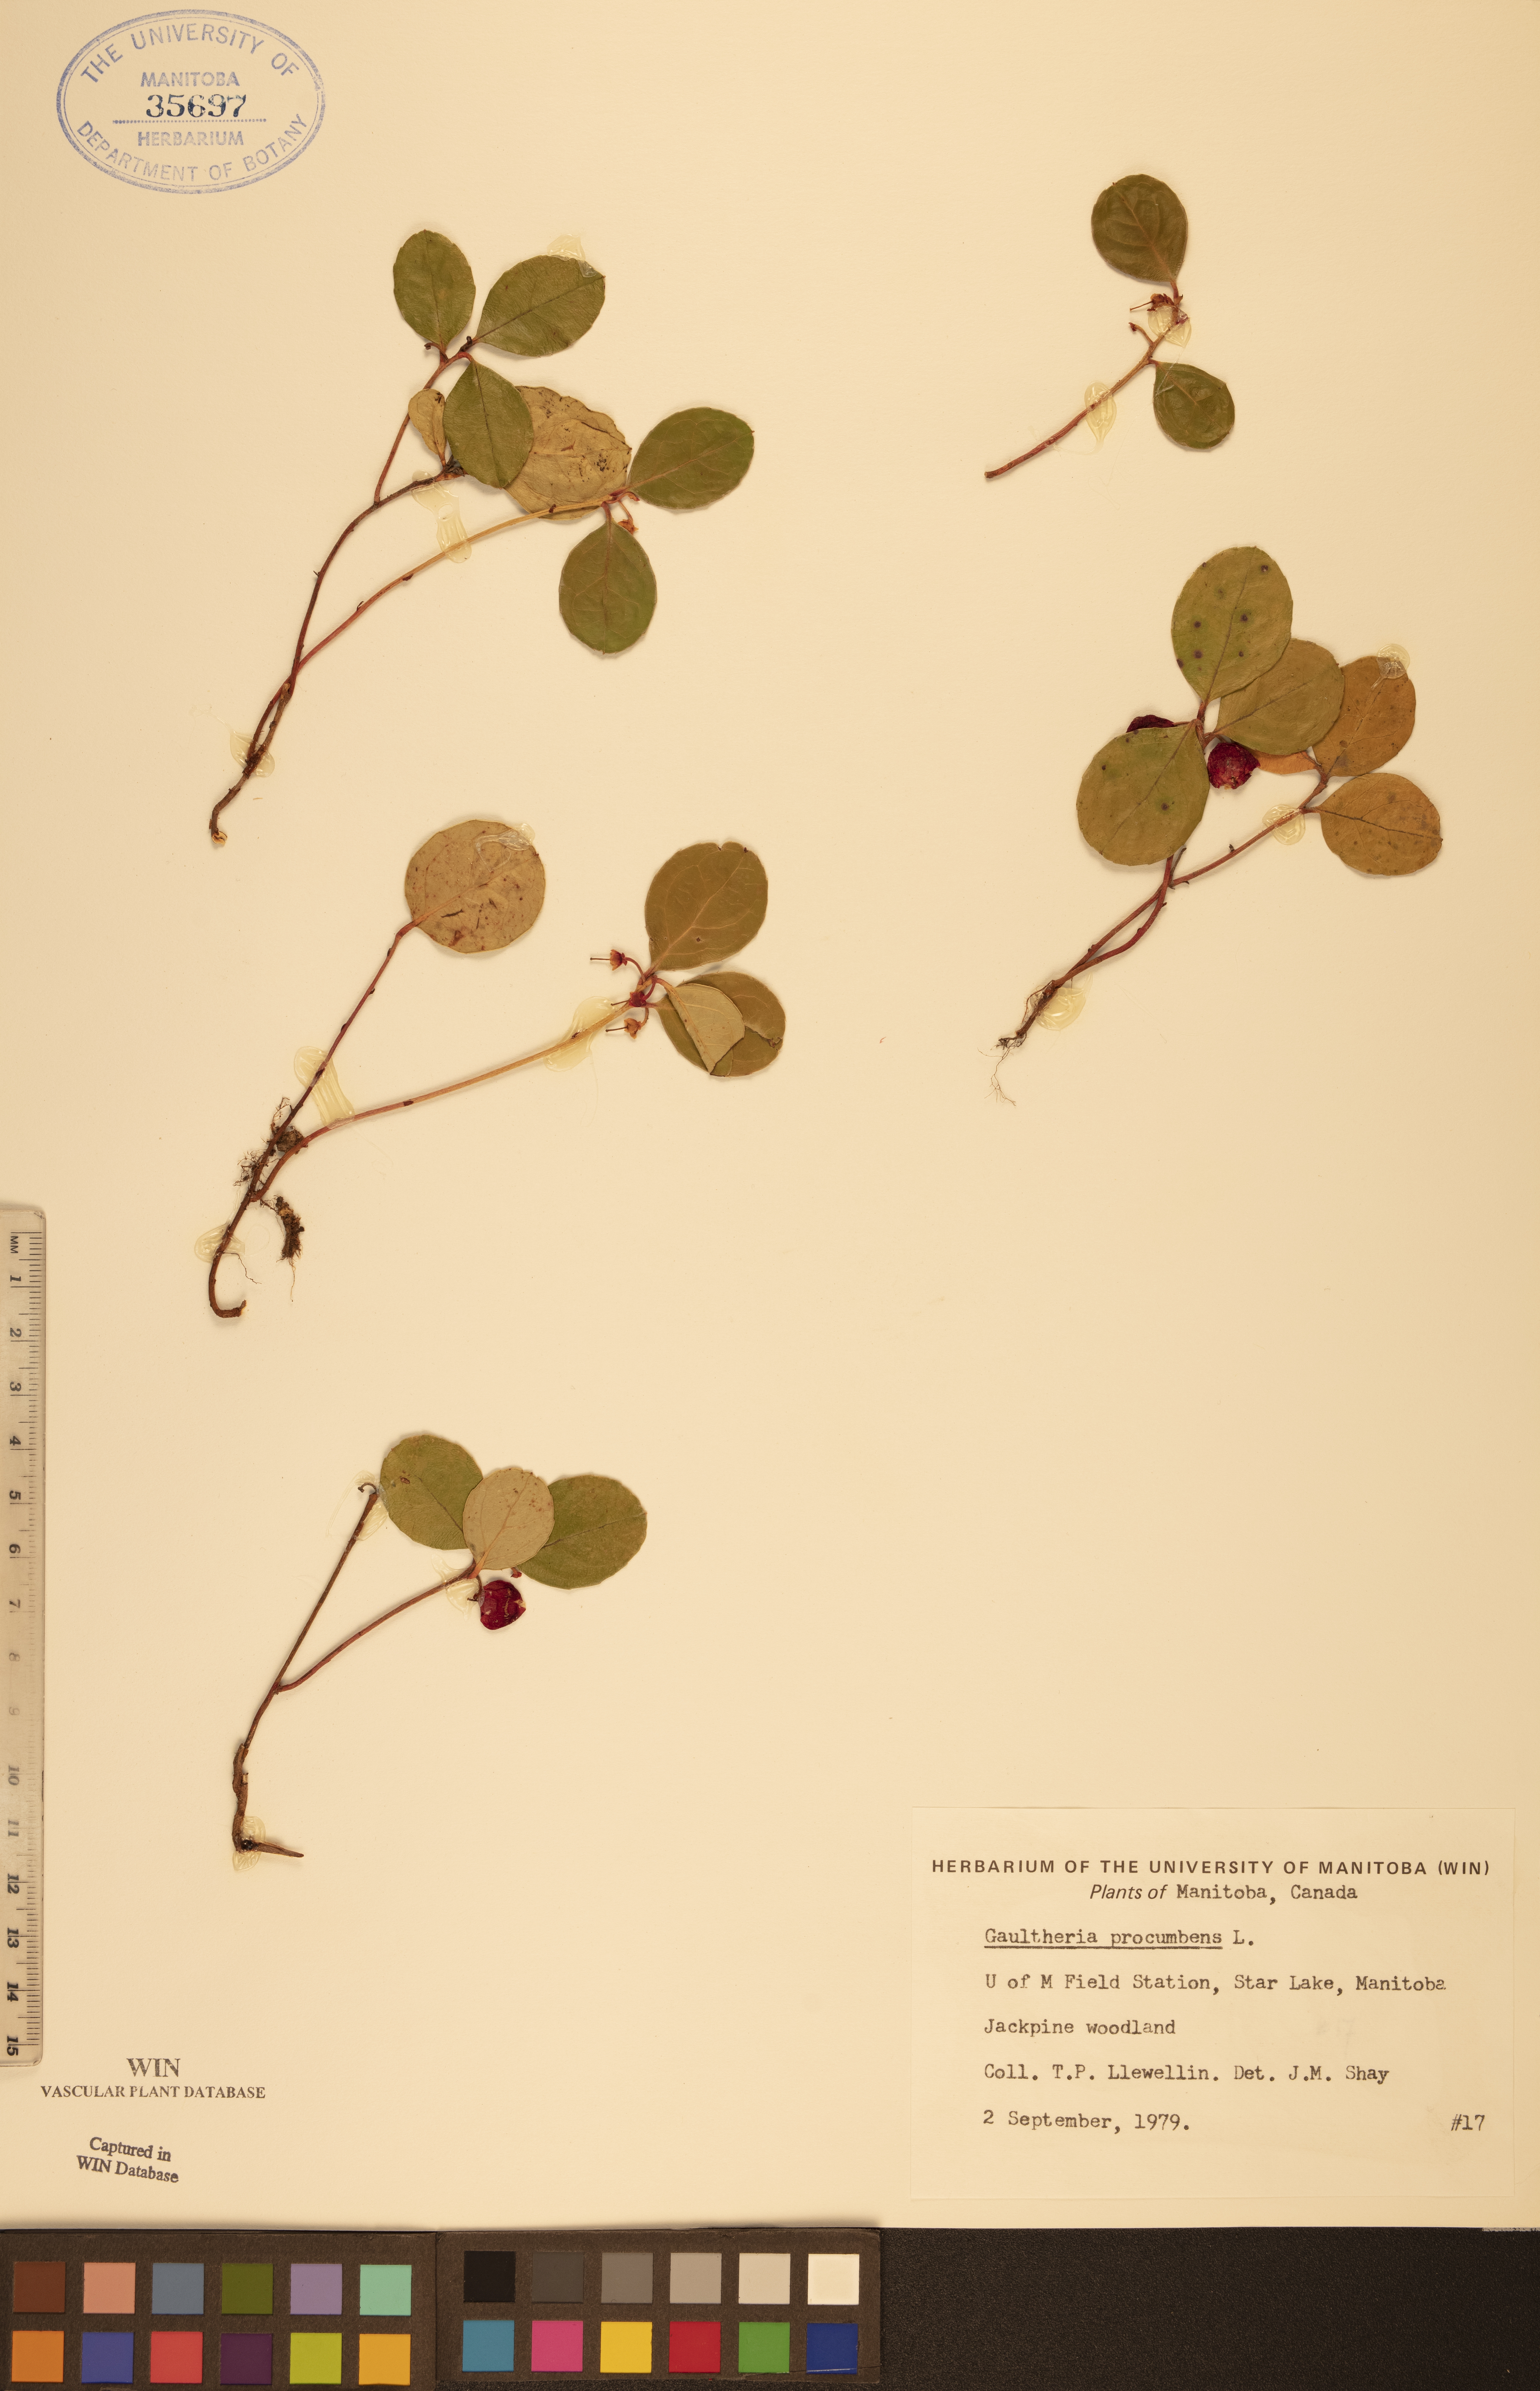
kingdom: Plantae
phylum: Tracheophyta
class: Magnoliopsida
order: Ericales
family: Ericaceae
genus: Gaultheria
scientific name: Gaultheria procumbens
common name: Checkerberry
